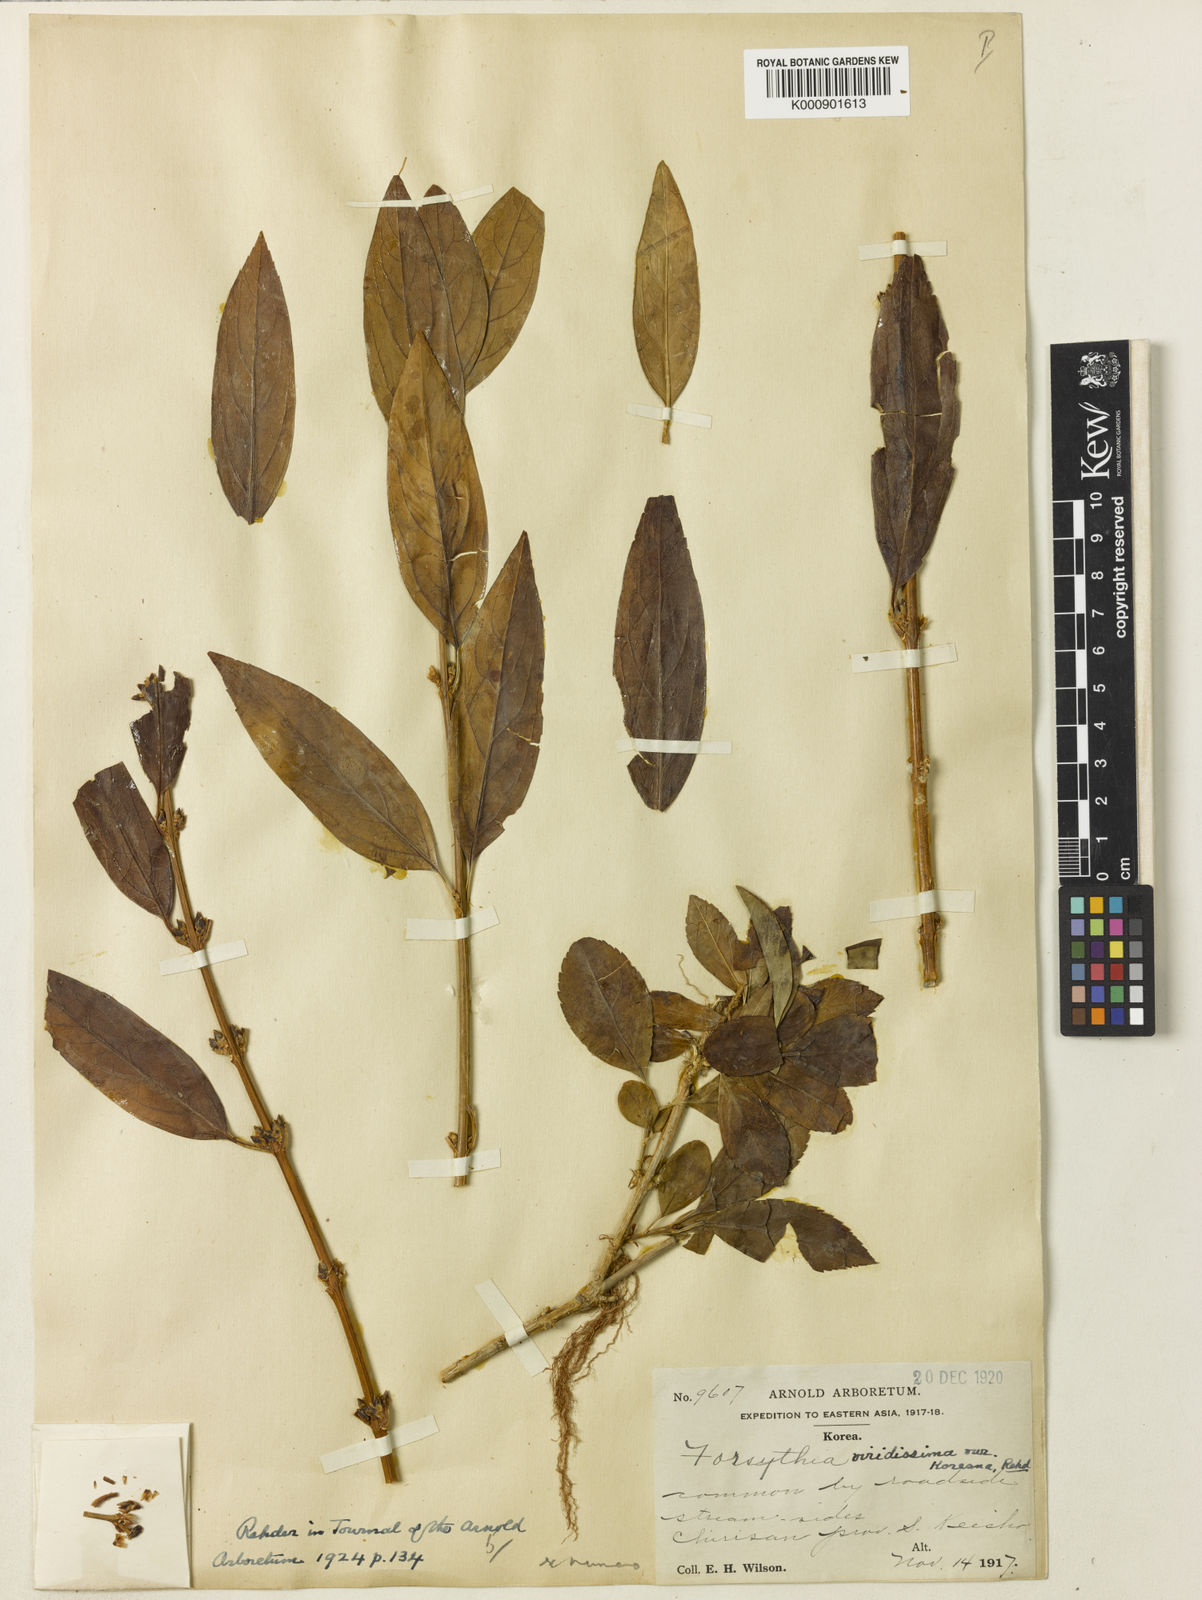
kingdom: Plantae
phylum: Tracheophyta
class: Magnoliopsida
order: Lamiales
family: Oleaceae
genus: Forsythia
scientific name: Forsythia viridissima
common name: Greenstem forsythia
